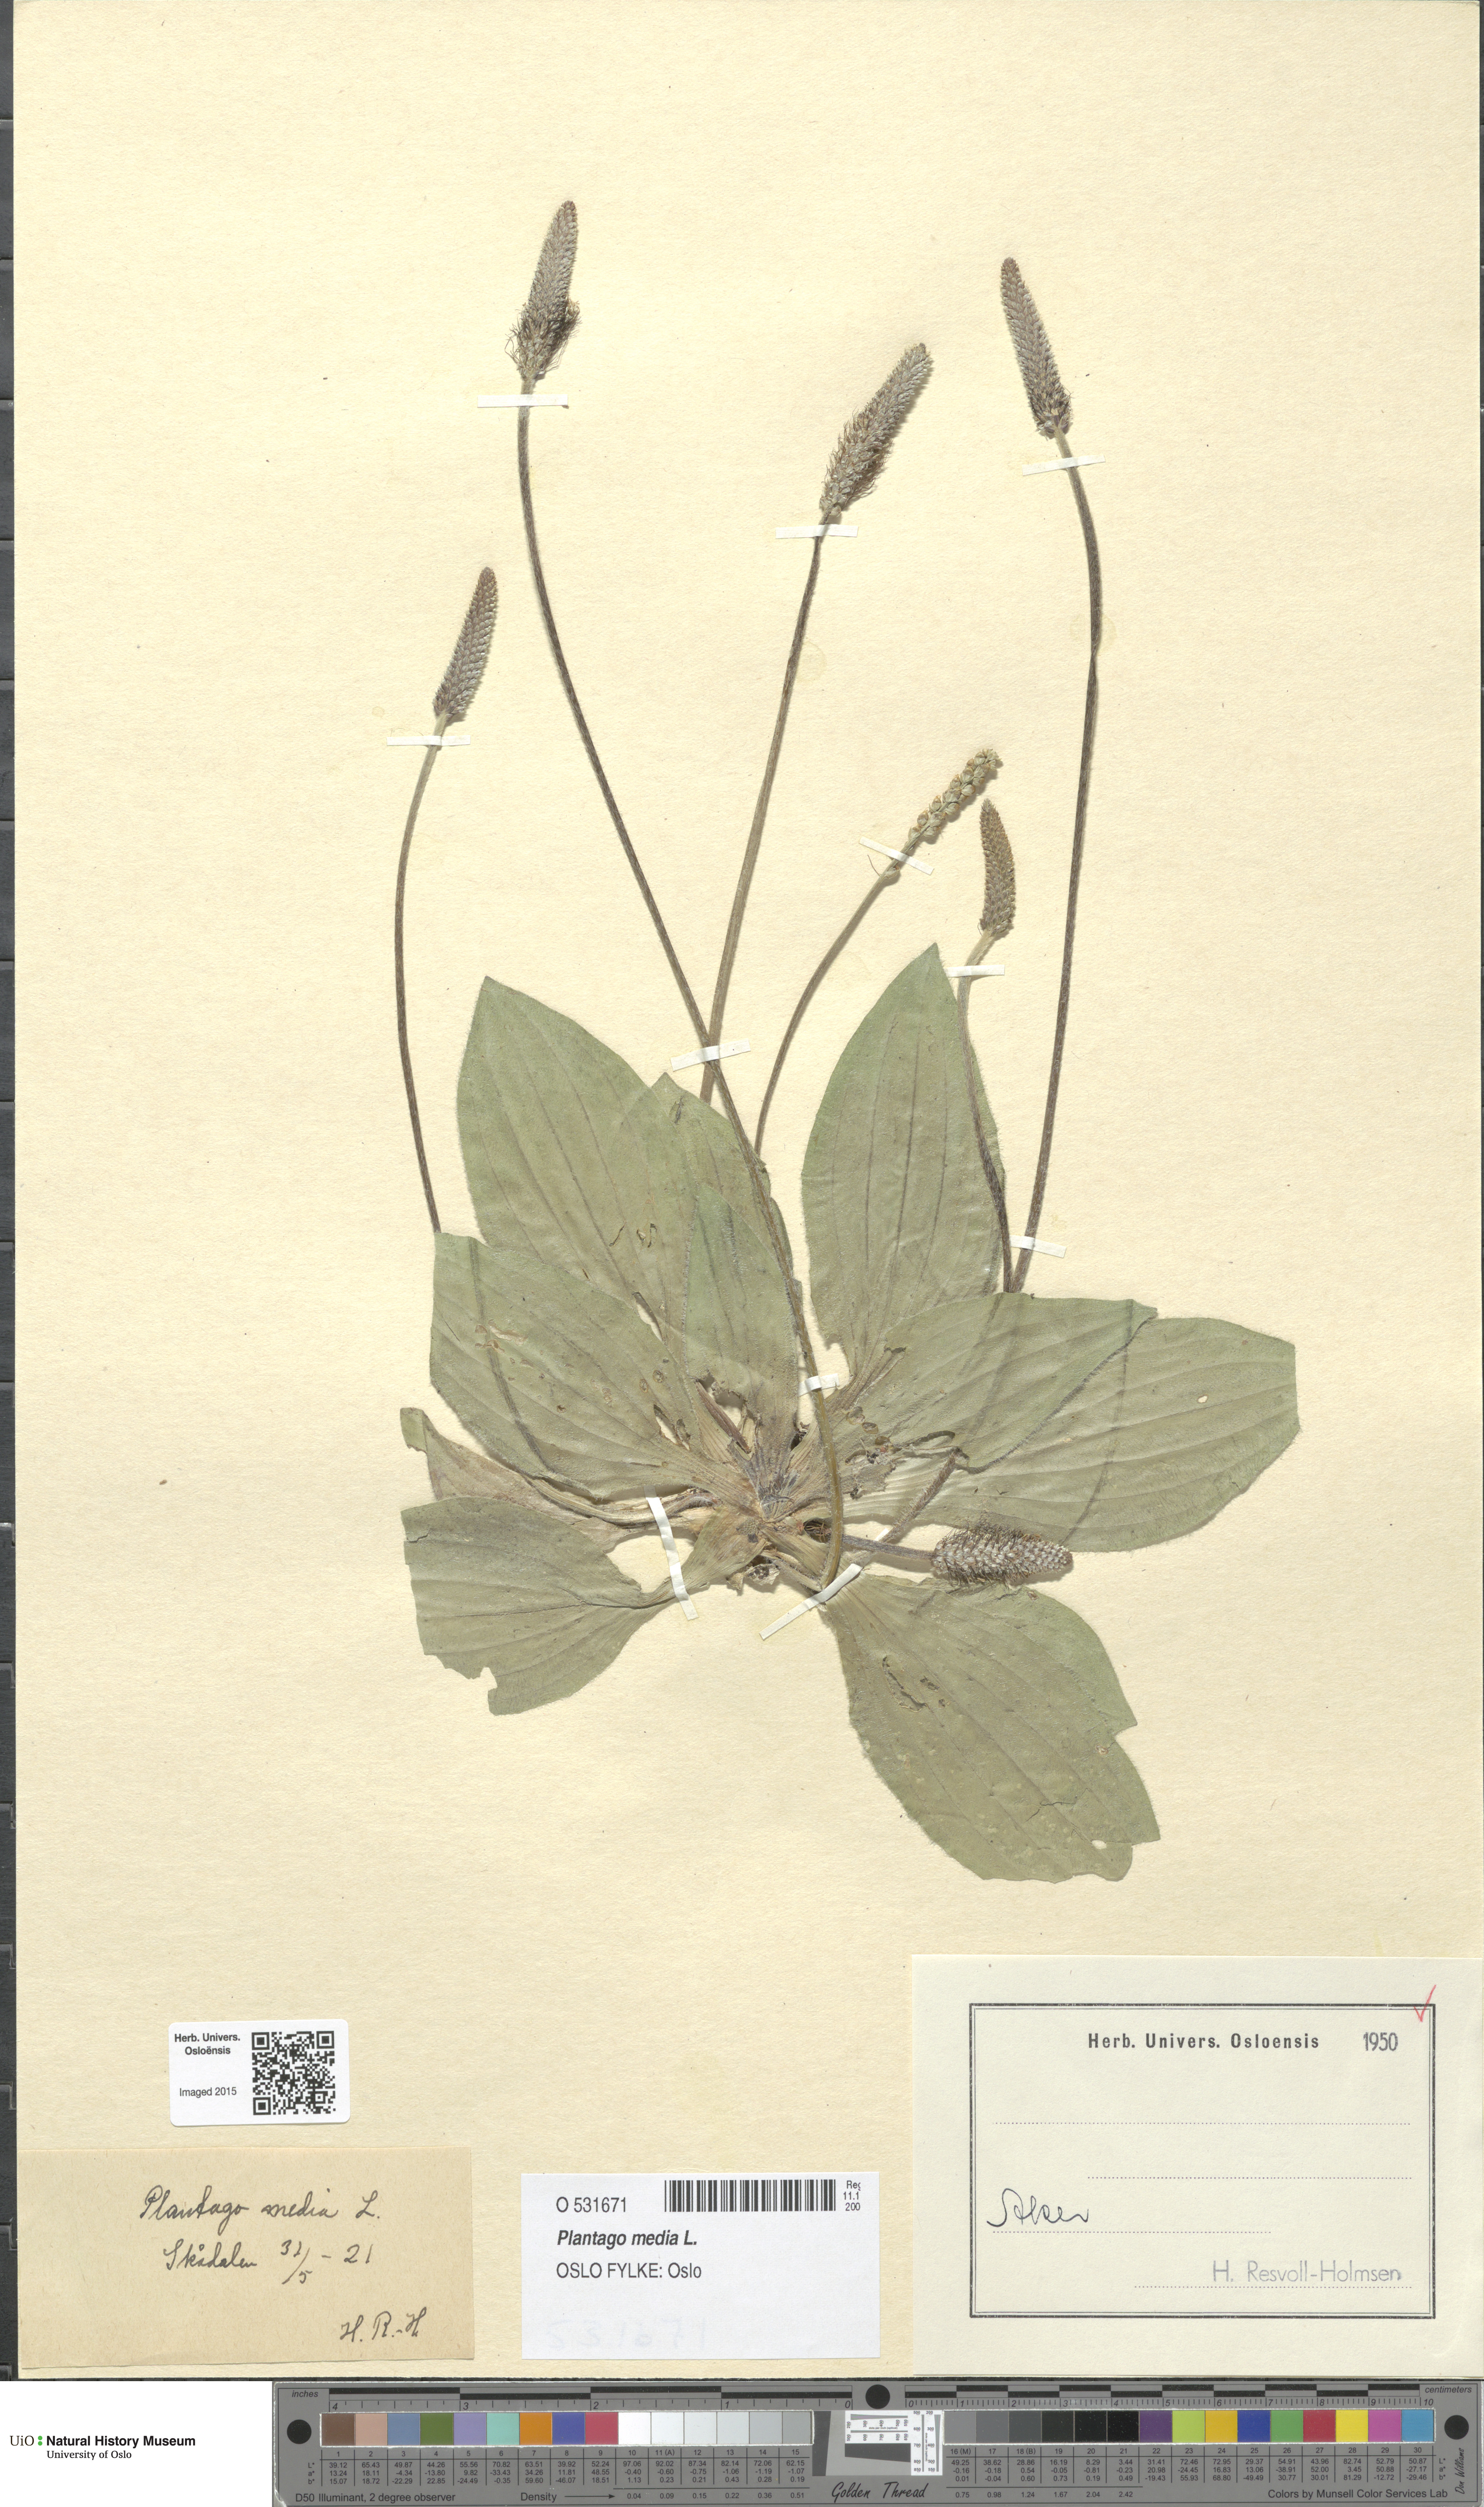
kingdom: Plantae
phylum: Tracheophyta
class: Magnoliopsida
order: Lamiales
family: Plantaginaceae
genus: Plantago
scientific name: Plantago media
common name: Hoary plantain
